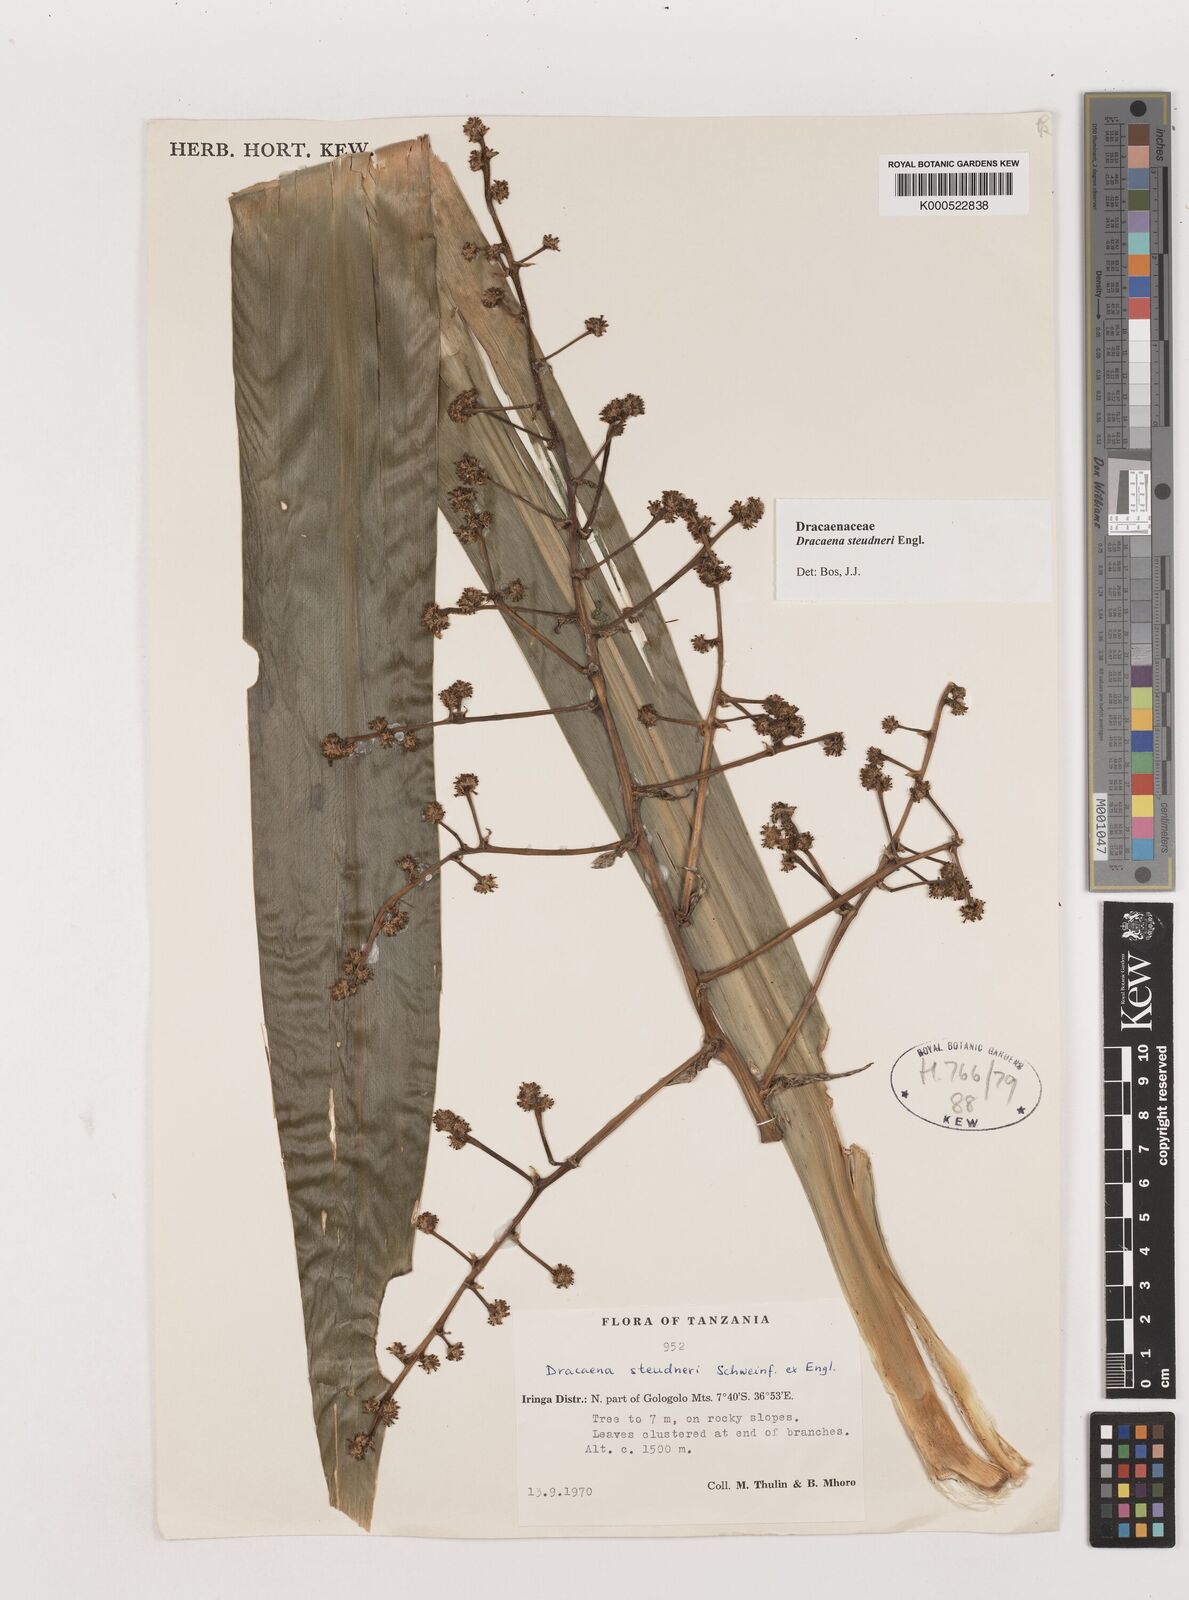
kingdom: Plantae
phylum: Tracheophyta
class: Liliopsida
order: Asparagales
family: Asparagaceae
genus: Dracaena
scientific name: Dracaena steudneri
